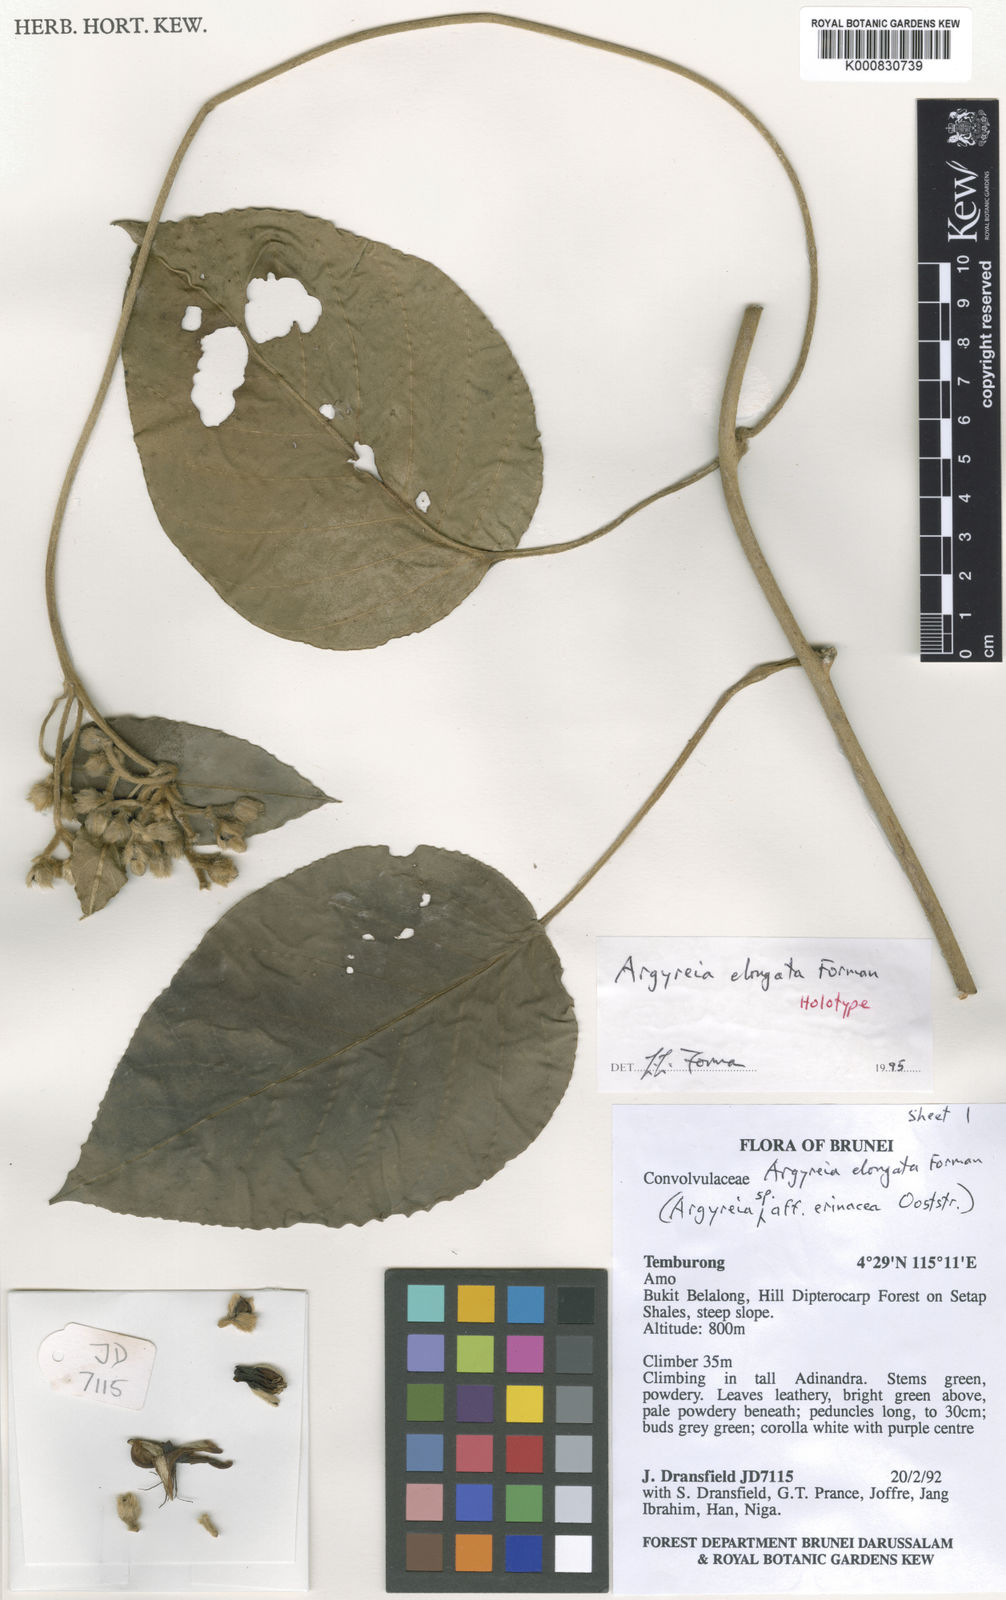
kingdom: Plantae
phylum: Tracheophyta
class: Magnoliopsida
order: Solanales
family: Convolvulaceae
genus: Argyreia
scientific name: Argyreia elongata
